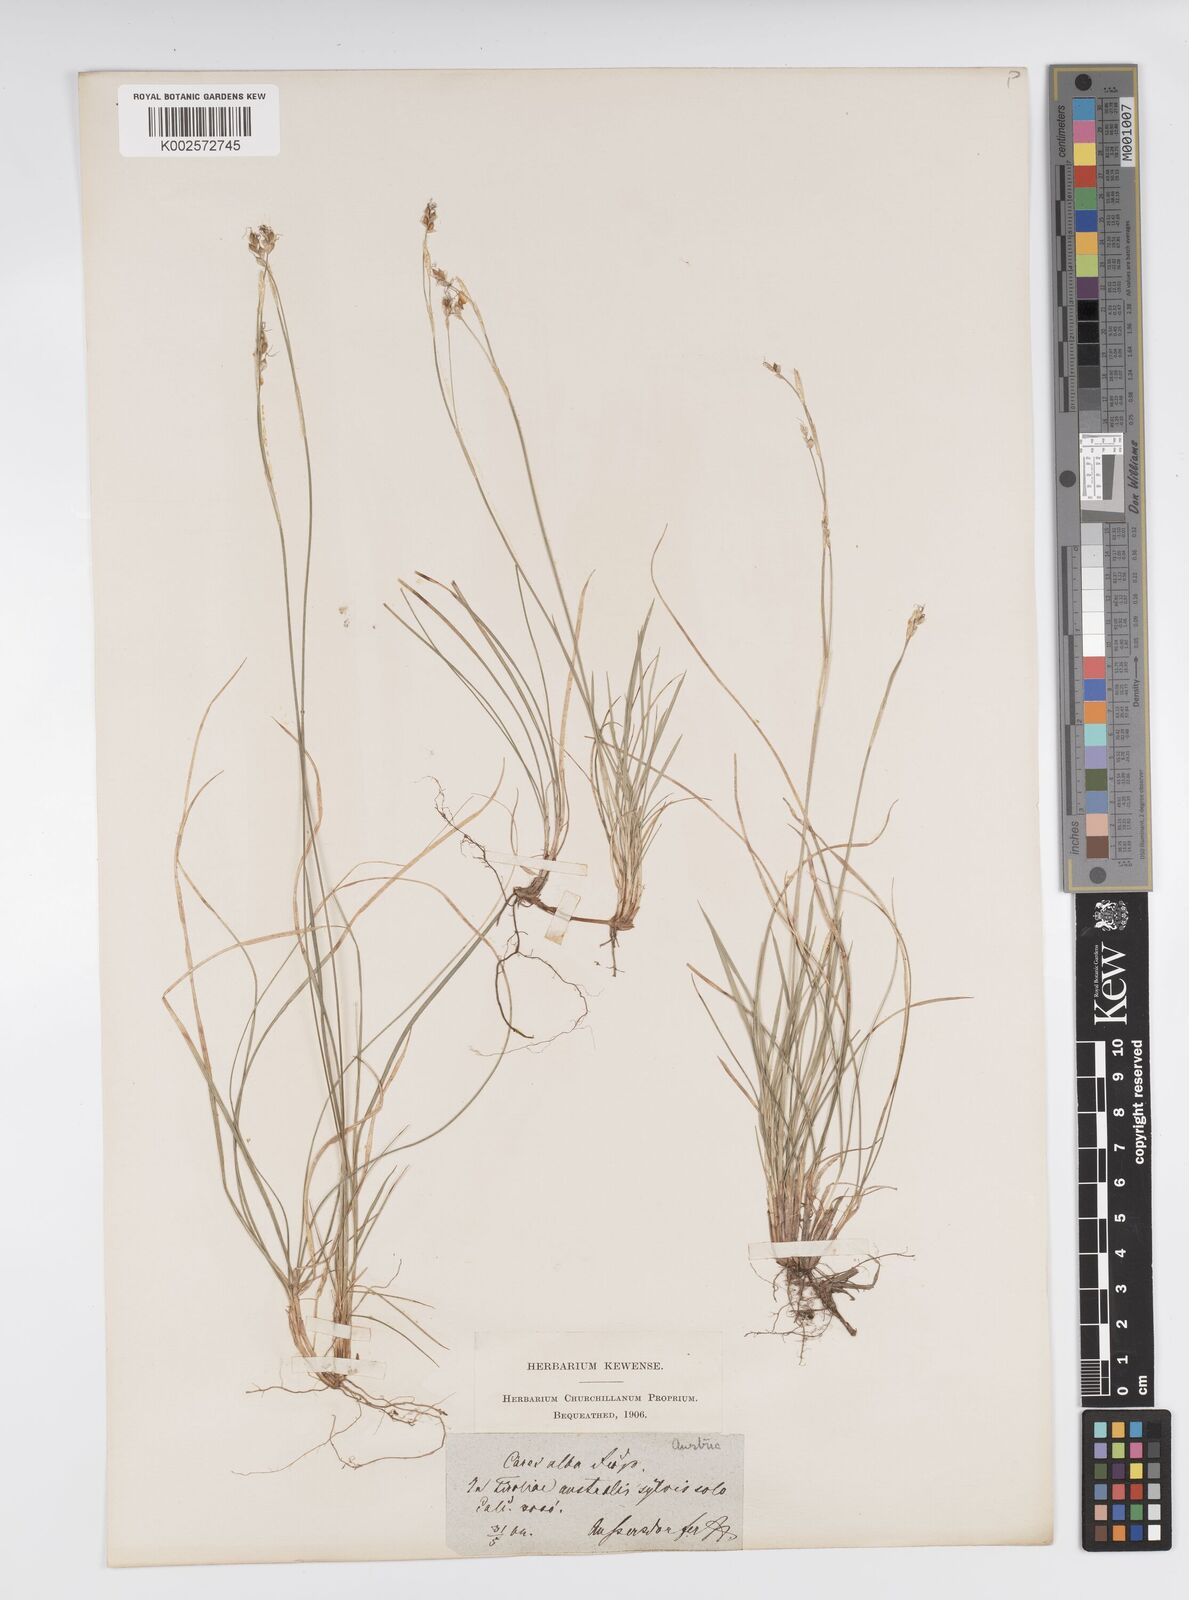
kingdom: Plantae
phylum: Tracheophyta
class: Liliopsida
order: Poales
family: Cyperaceae
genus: Carex
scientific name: Carex alba
